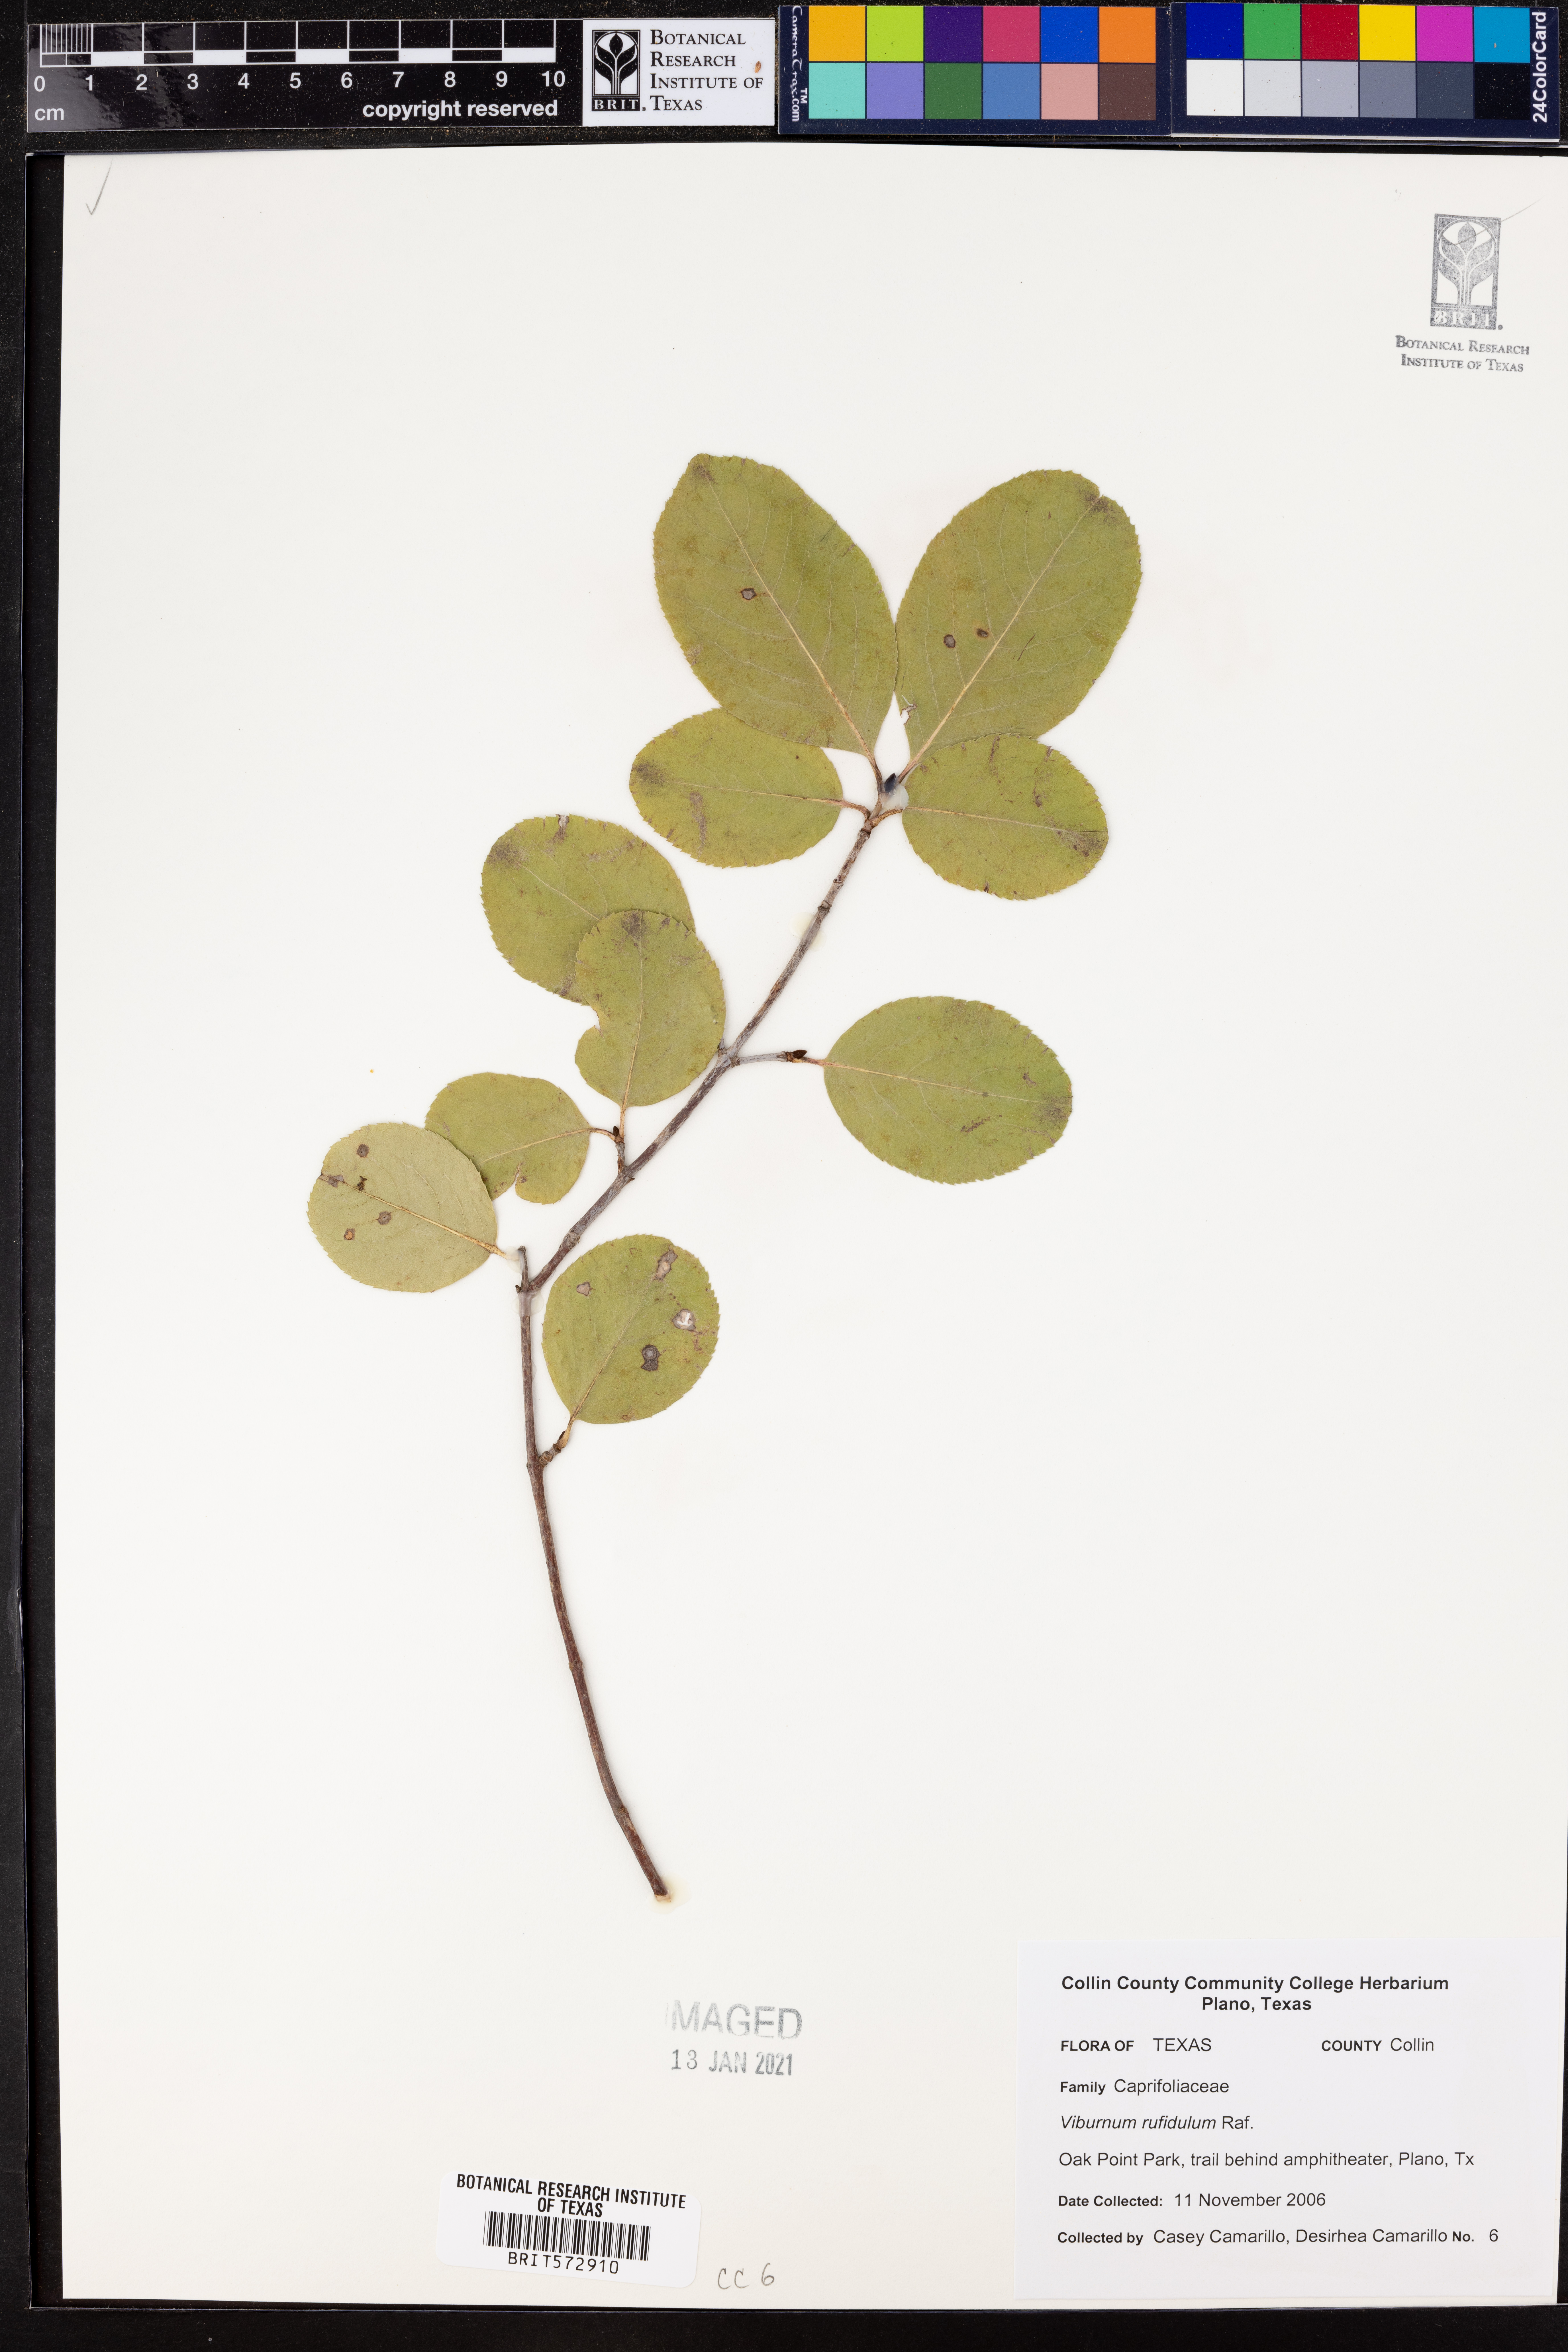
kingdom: Plantae
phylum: Tracheophyta
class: Magnoliopsida
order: Dipsacales
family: Viburnaceae
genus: Viburnum
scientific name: Viburnum rufidulum
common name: Blue haw
